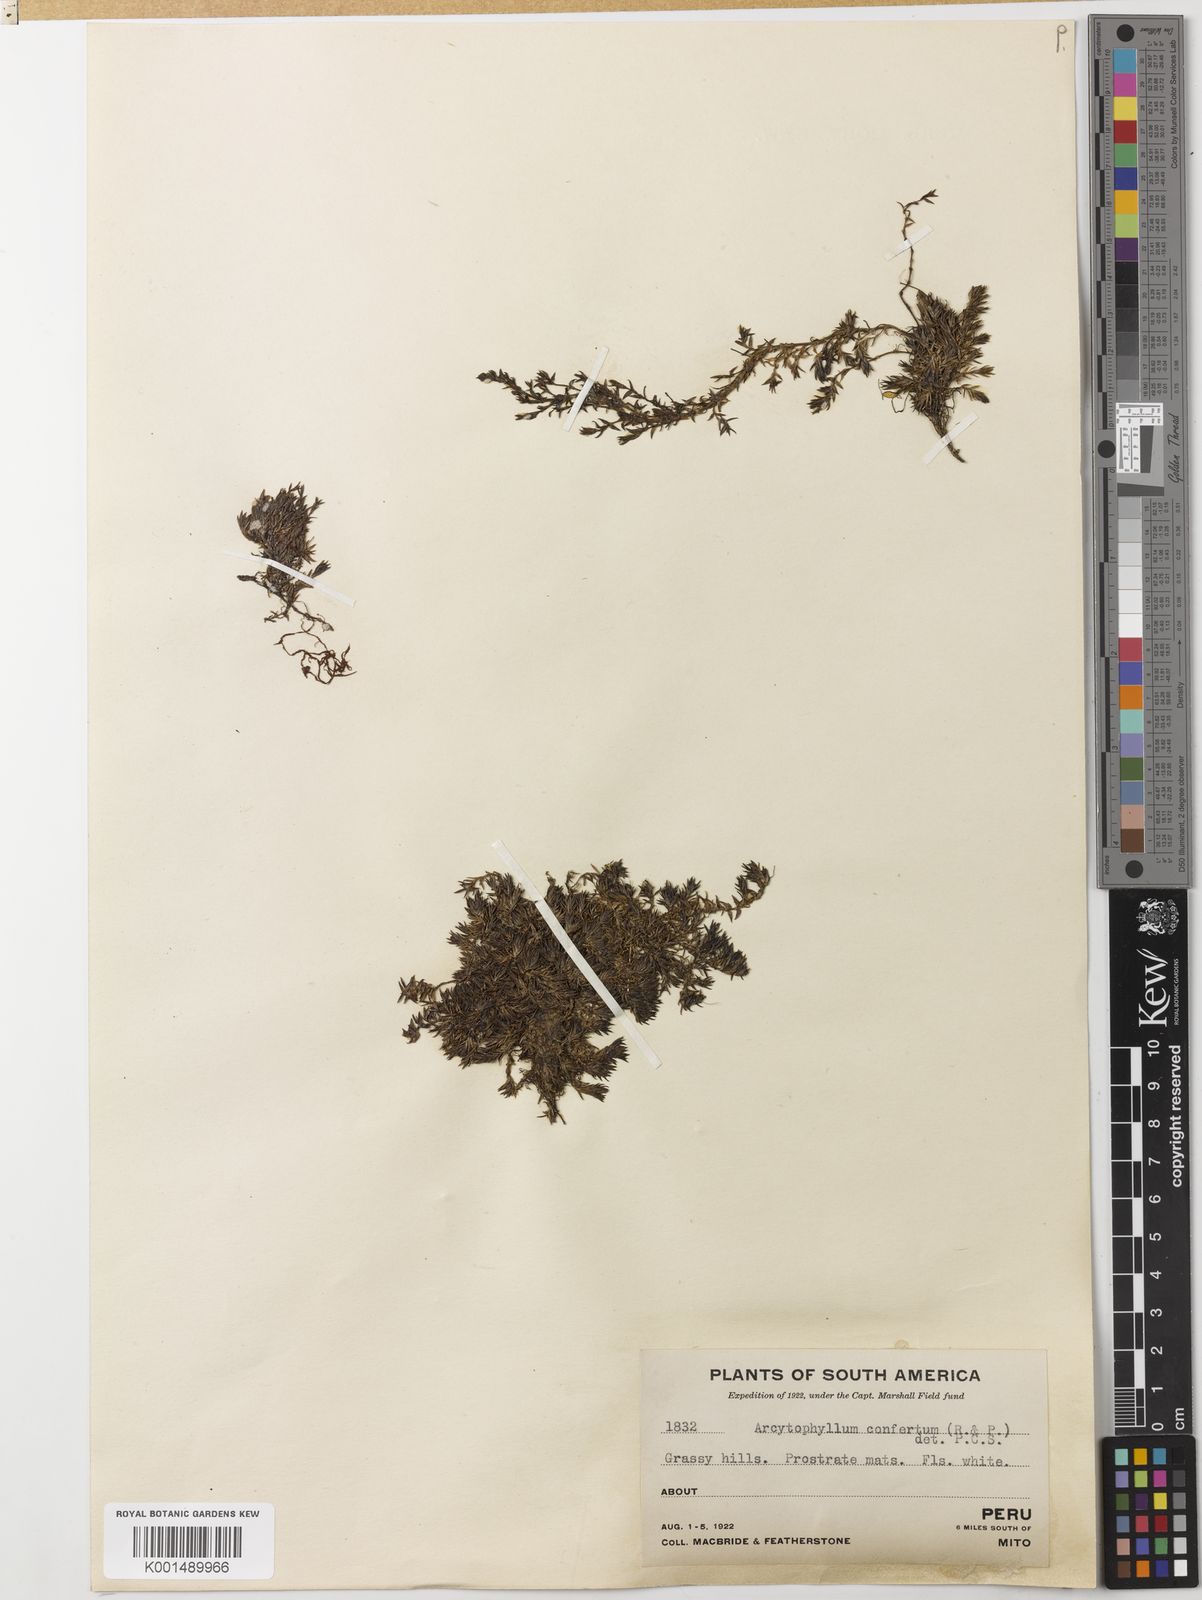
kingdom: Plantae
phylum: Tracheophyta
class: Magnoliopsida
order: Gentianales
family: Rubiaceae
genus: Arcytophyllum
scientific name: Arcytophyllum filiforme
